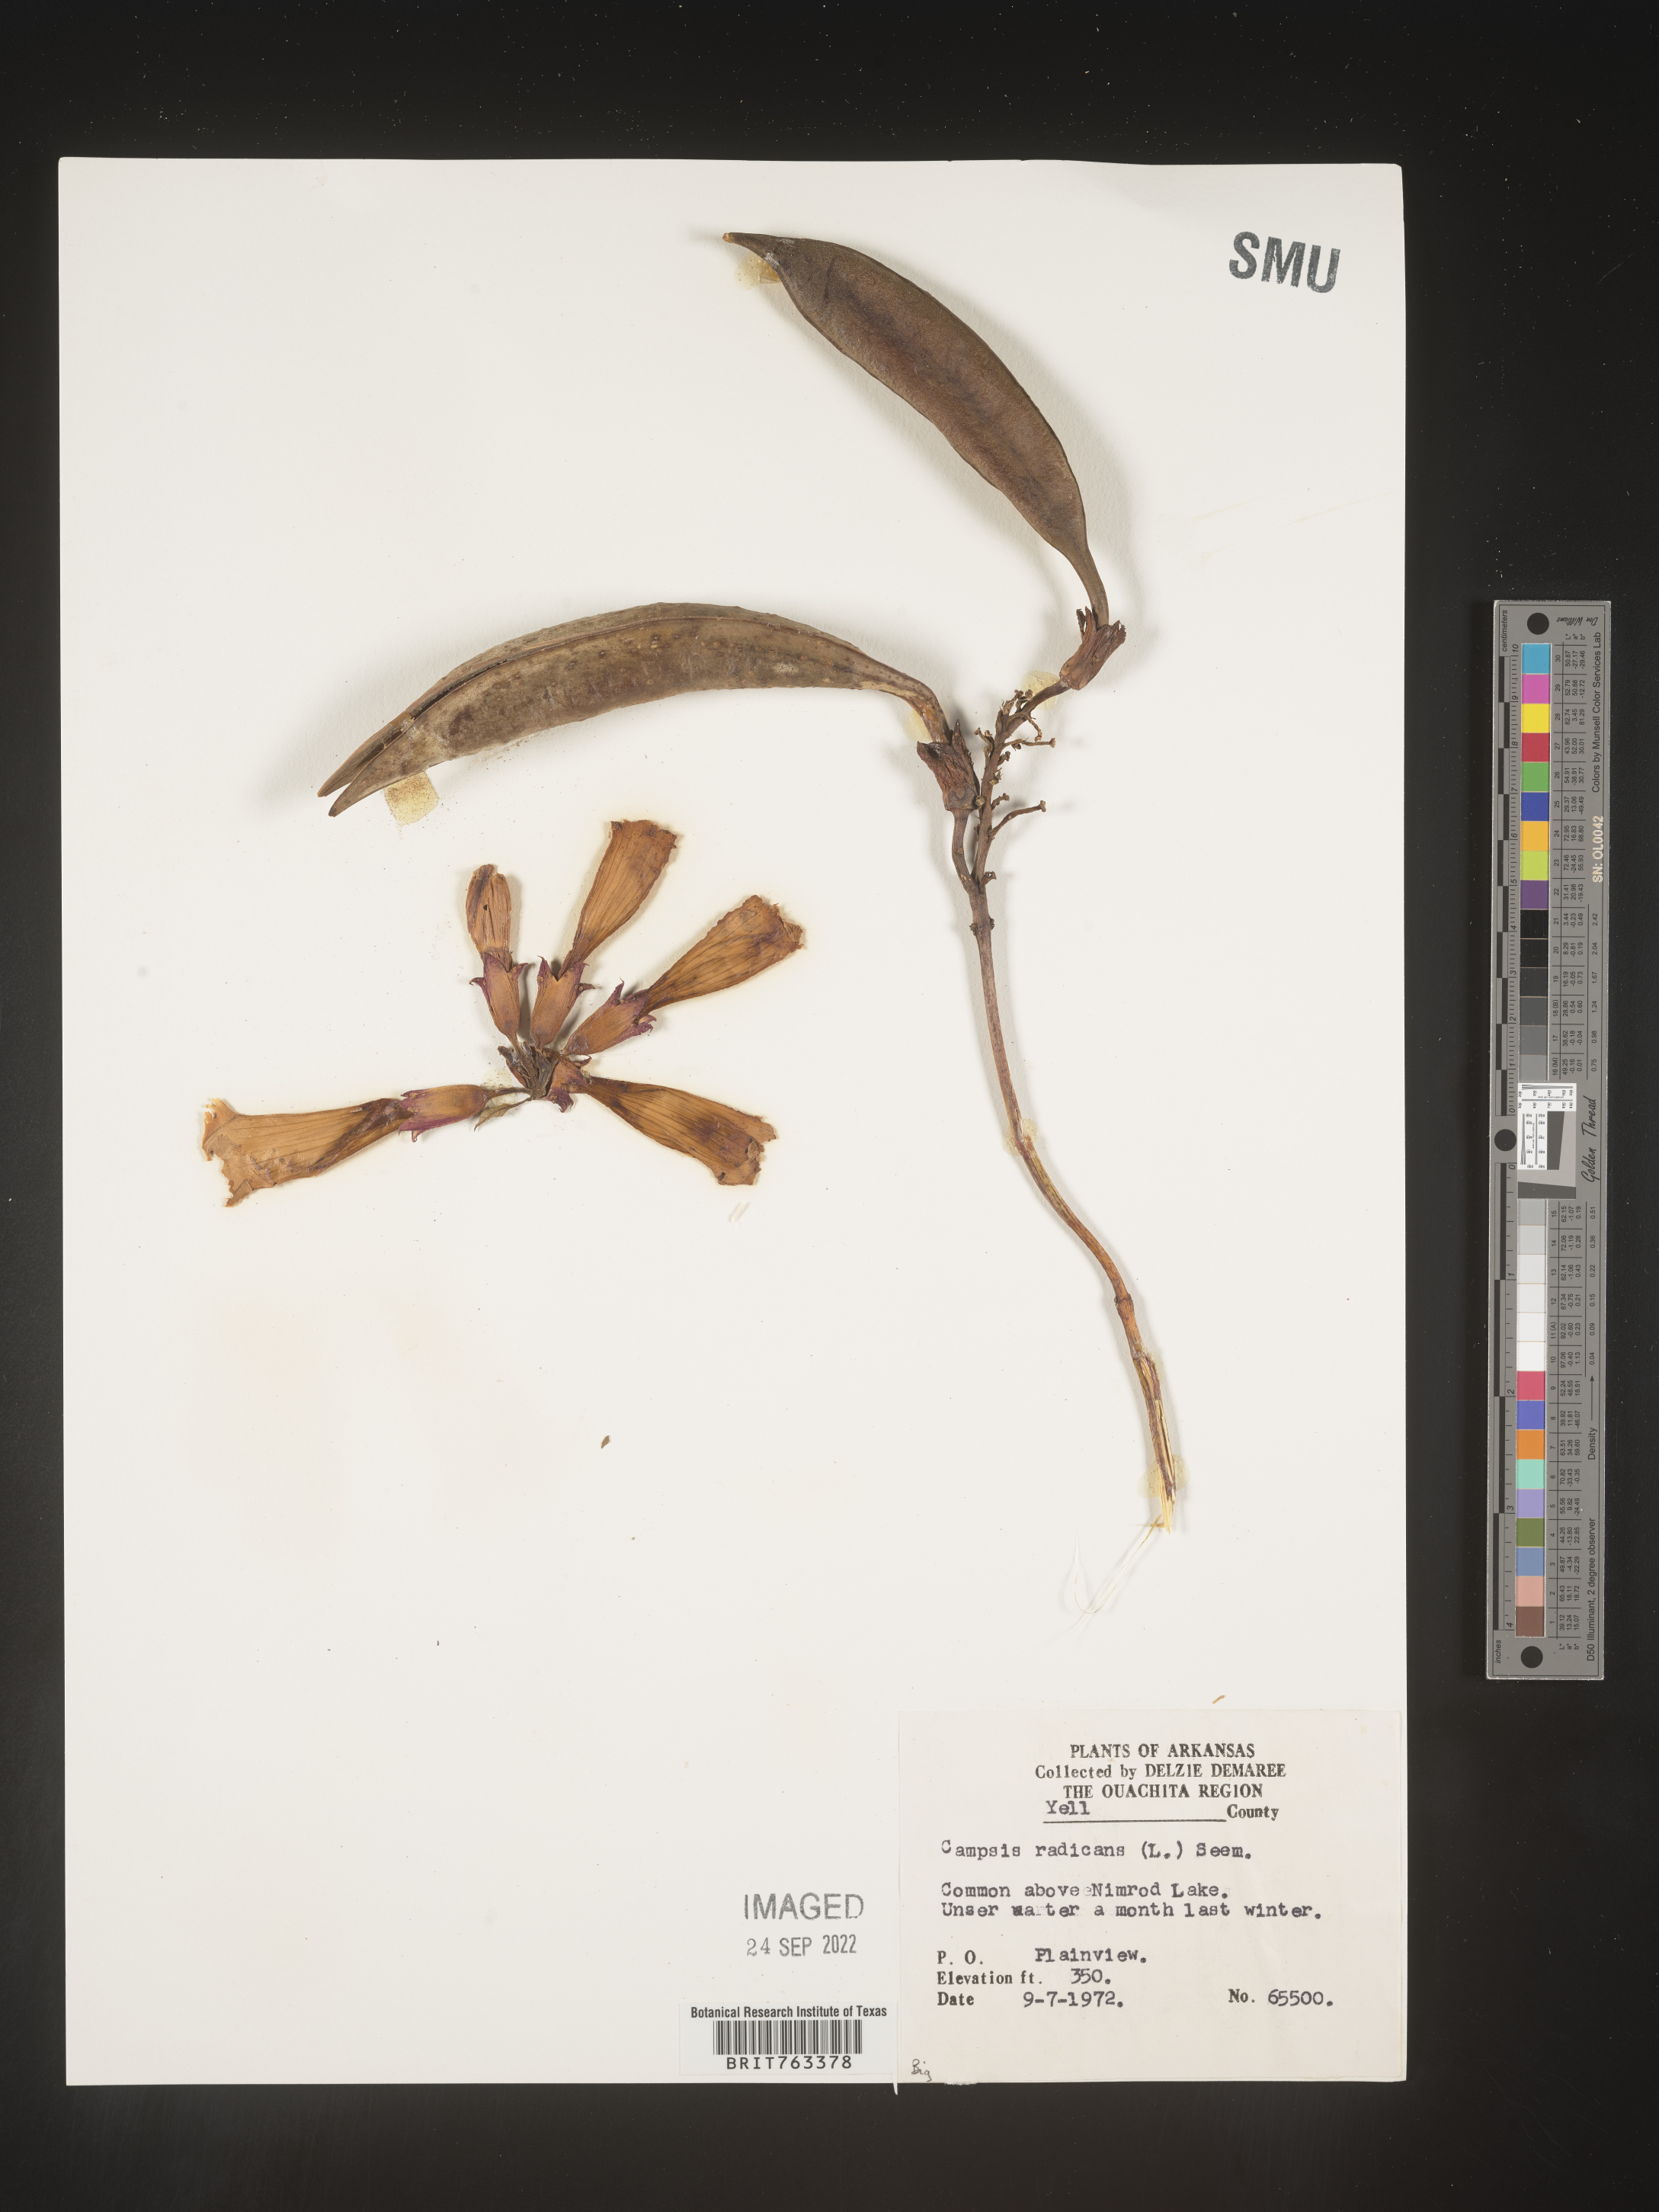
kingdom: Plantae
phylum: Tracheophyta
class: Magnoliopsida
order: Lamiales
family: Bignoniaceae
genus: Campsis
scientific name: Campsis radicans
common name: Trumpet-creeper
